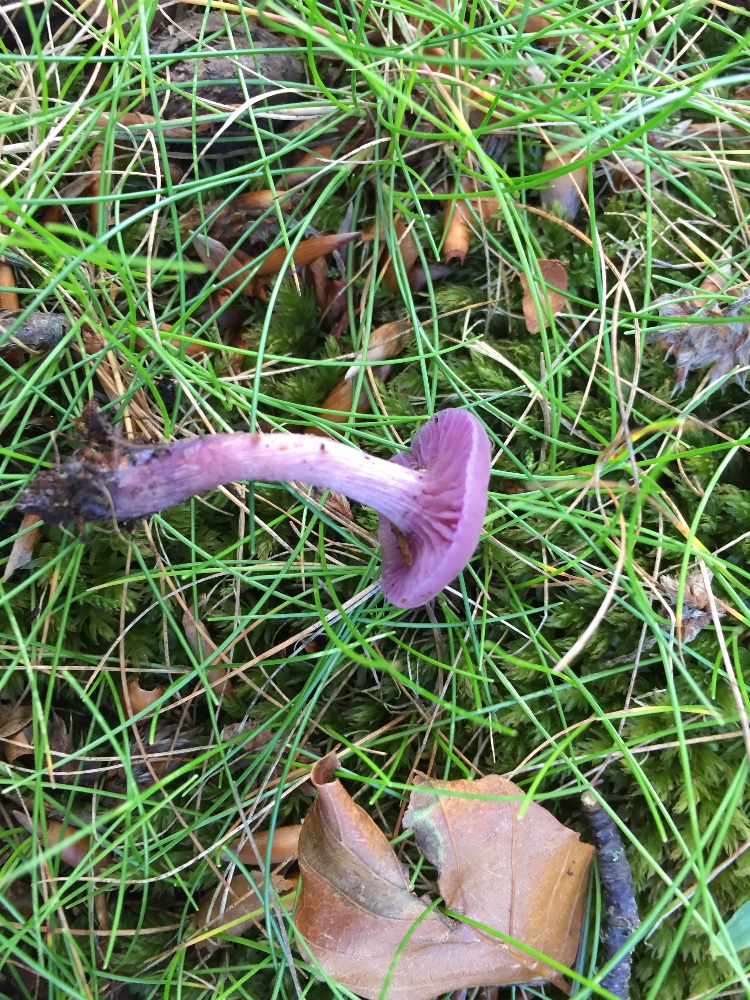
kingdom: Fungi
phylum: Basidiomycota
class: Agaricomycetes
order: Agaricales
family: Hydnangiaceae
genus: Laccaria
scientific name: Laccaria amethystina
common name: violet ametysthat
